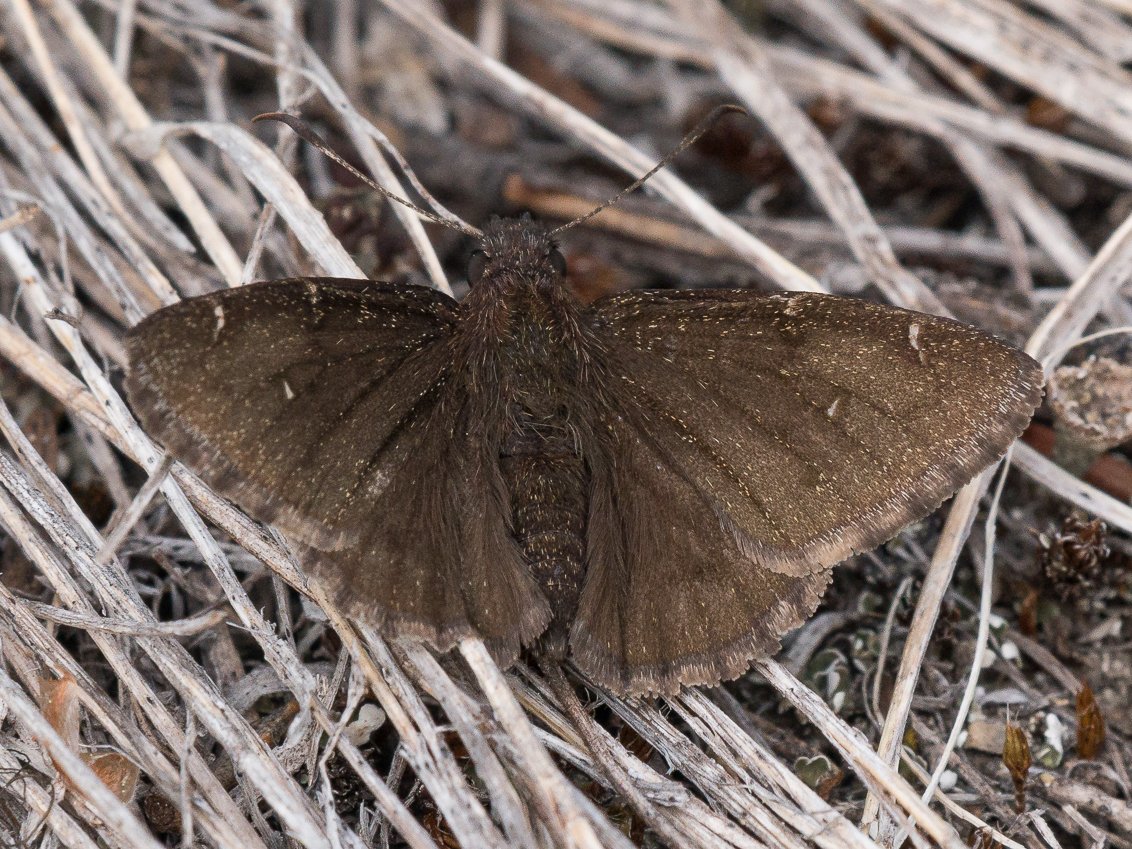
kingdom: Animalia
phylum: Arthropoda
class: Insecta
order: Lepidoptera
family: Hesperiidae
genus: Autochton
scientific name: Autochton
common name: Northern Cloudywing
